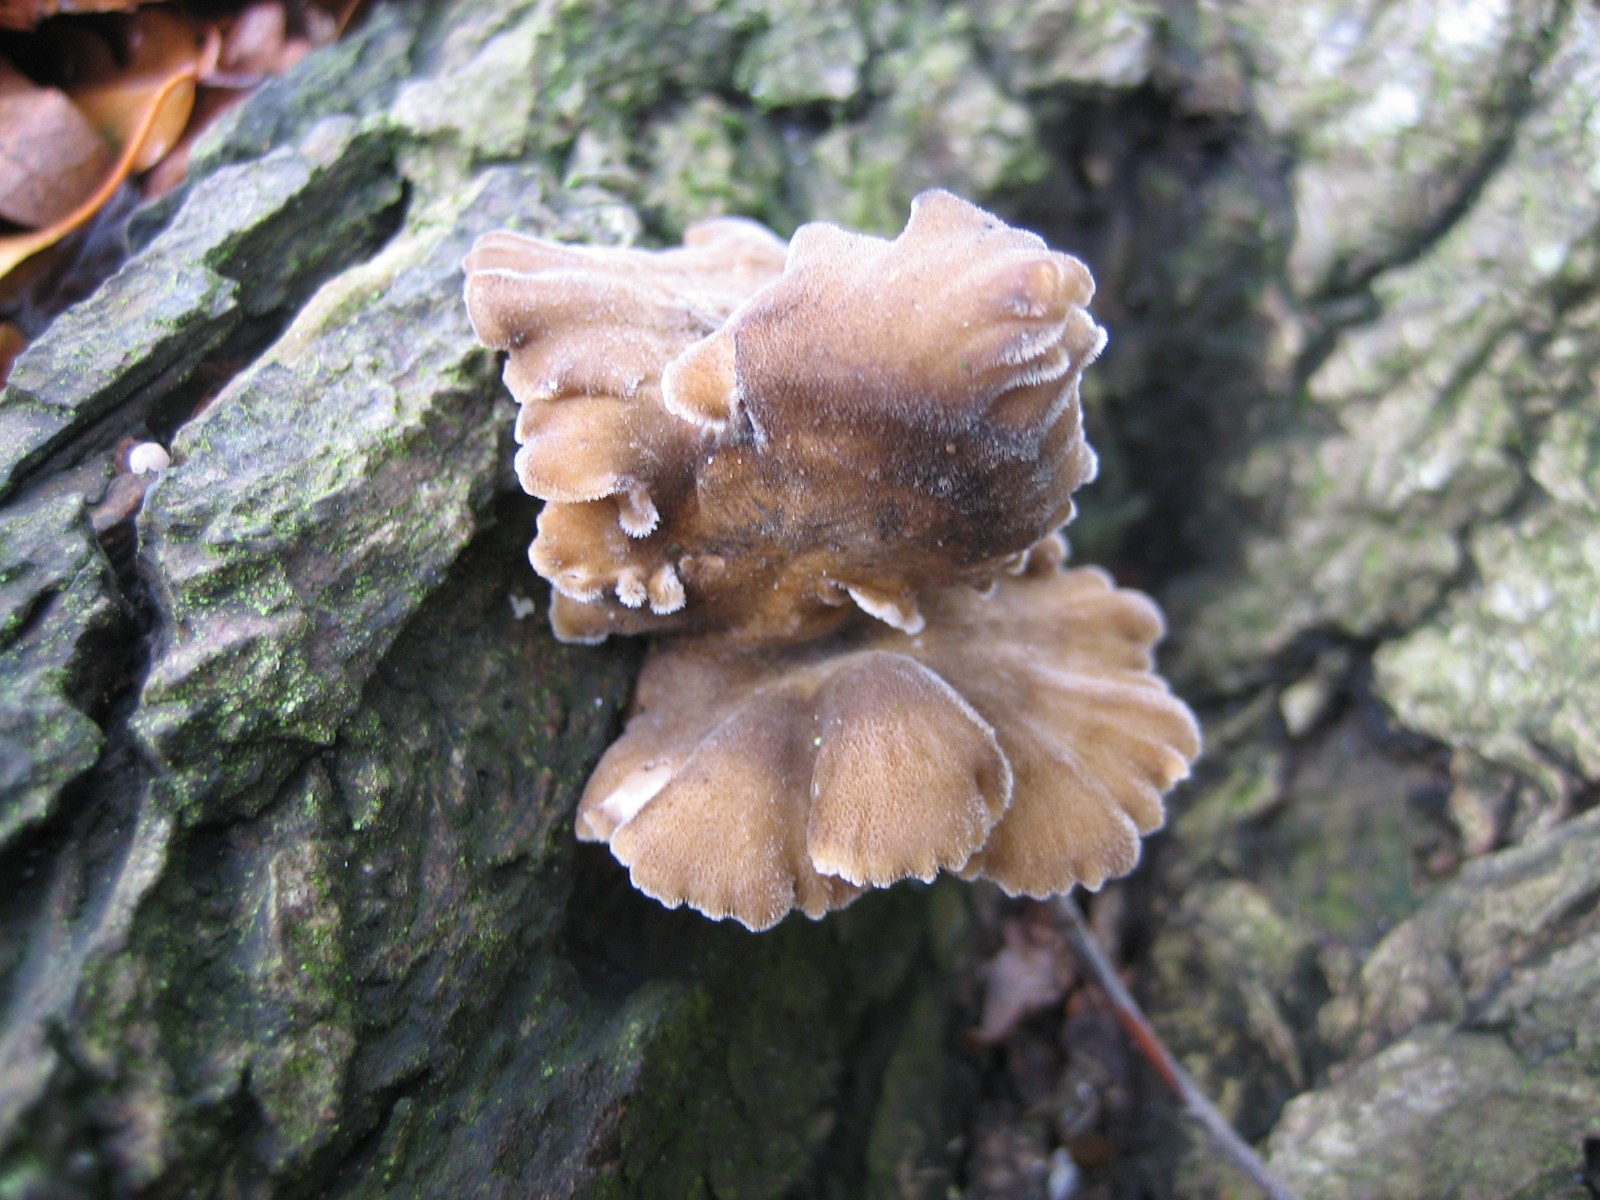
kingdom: Fungi
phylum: Basidiomycota
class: Agaricomycetes
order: Polyporales
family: Polyporaceae
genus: Lentinus
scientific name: Lentinus brumalis
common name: vinter-stilkporesvamp
